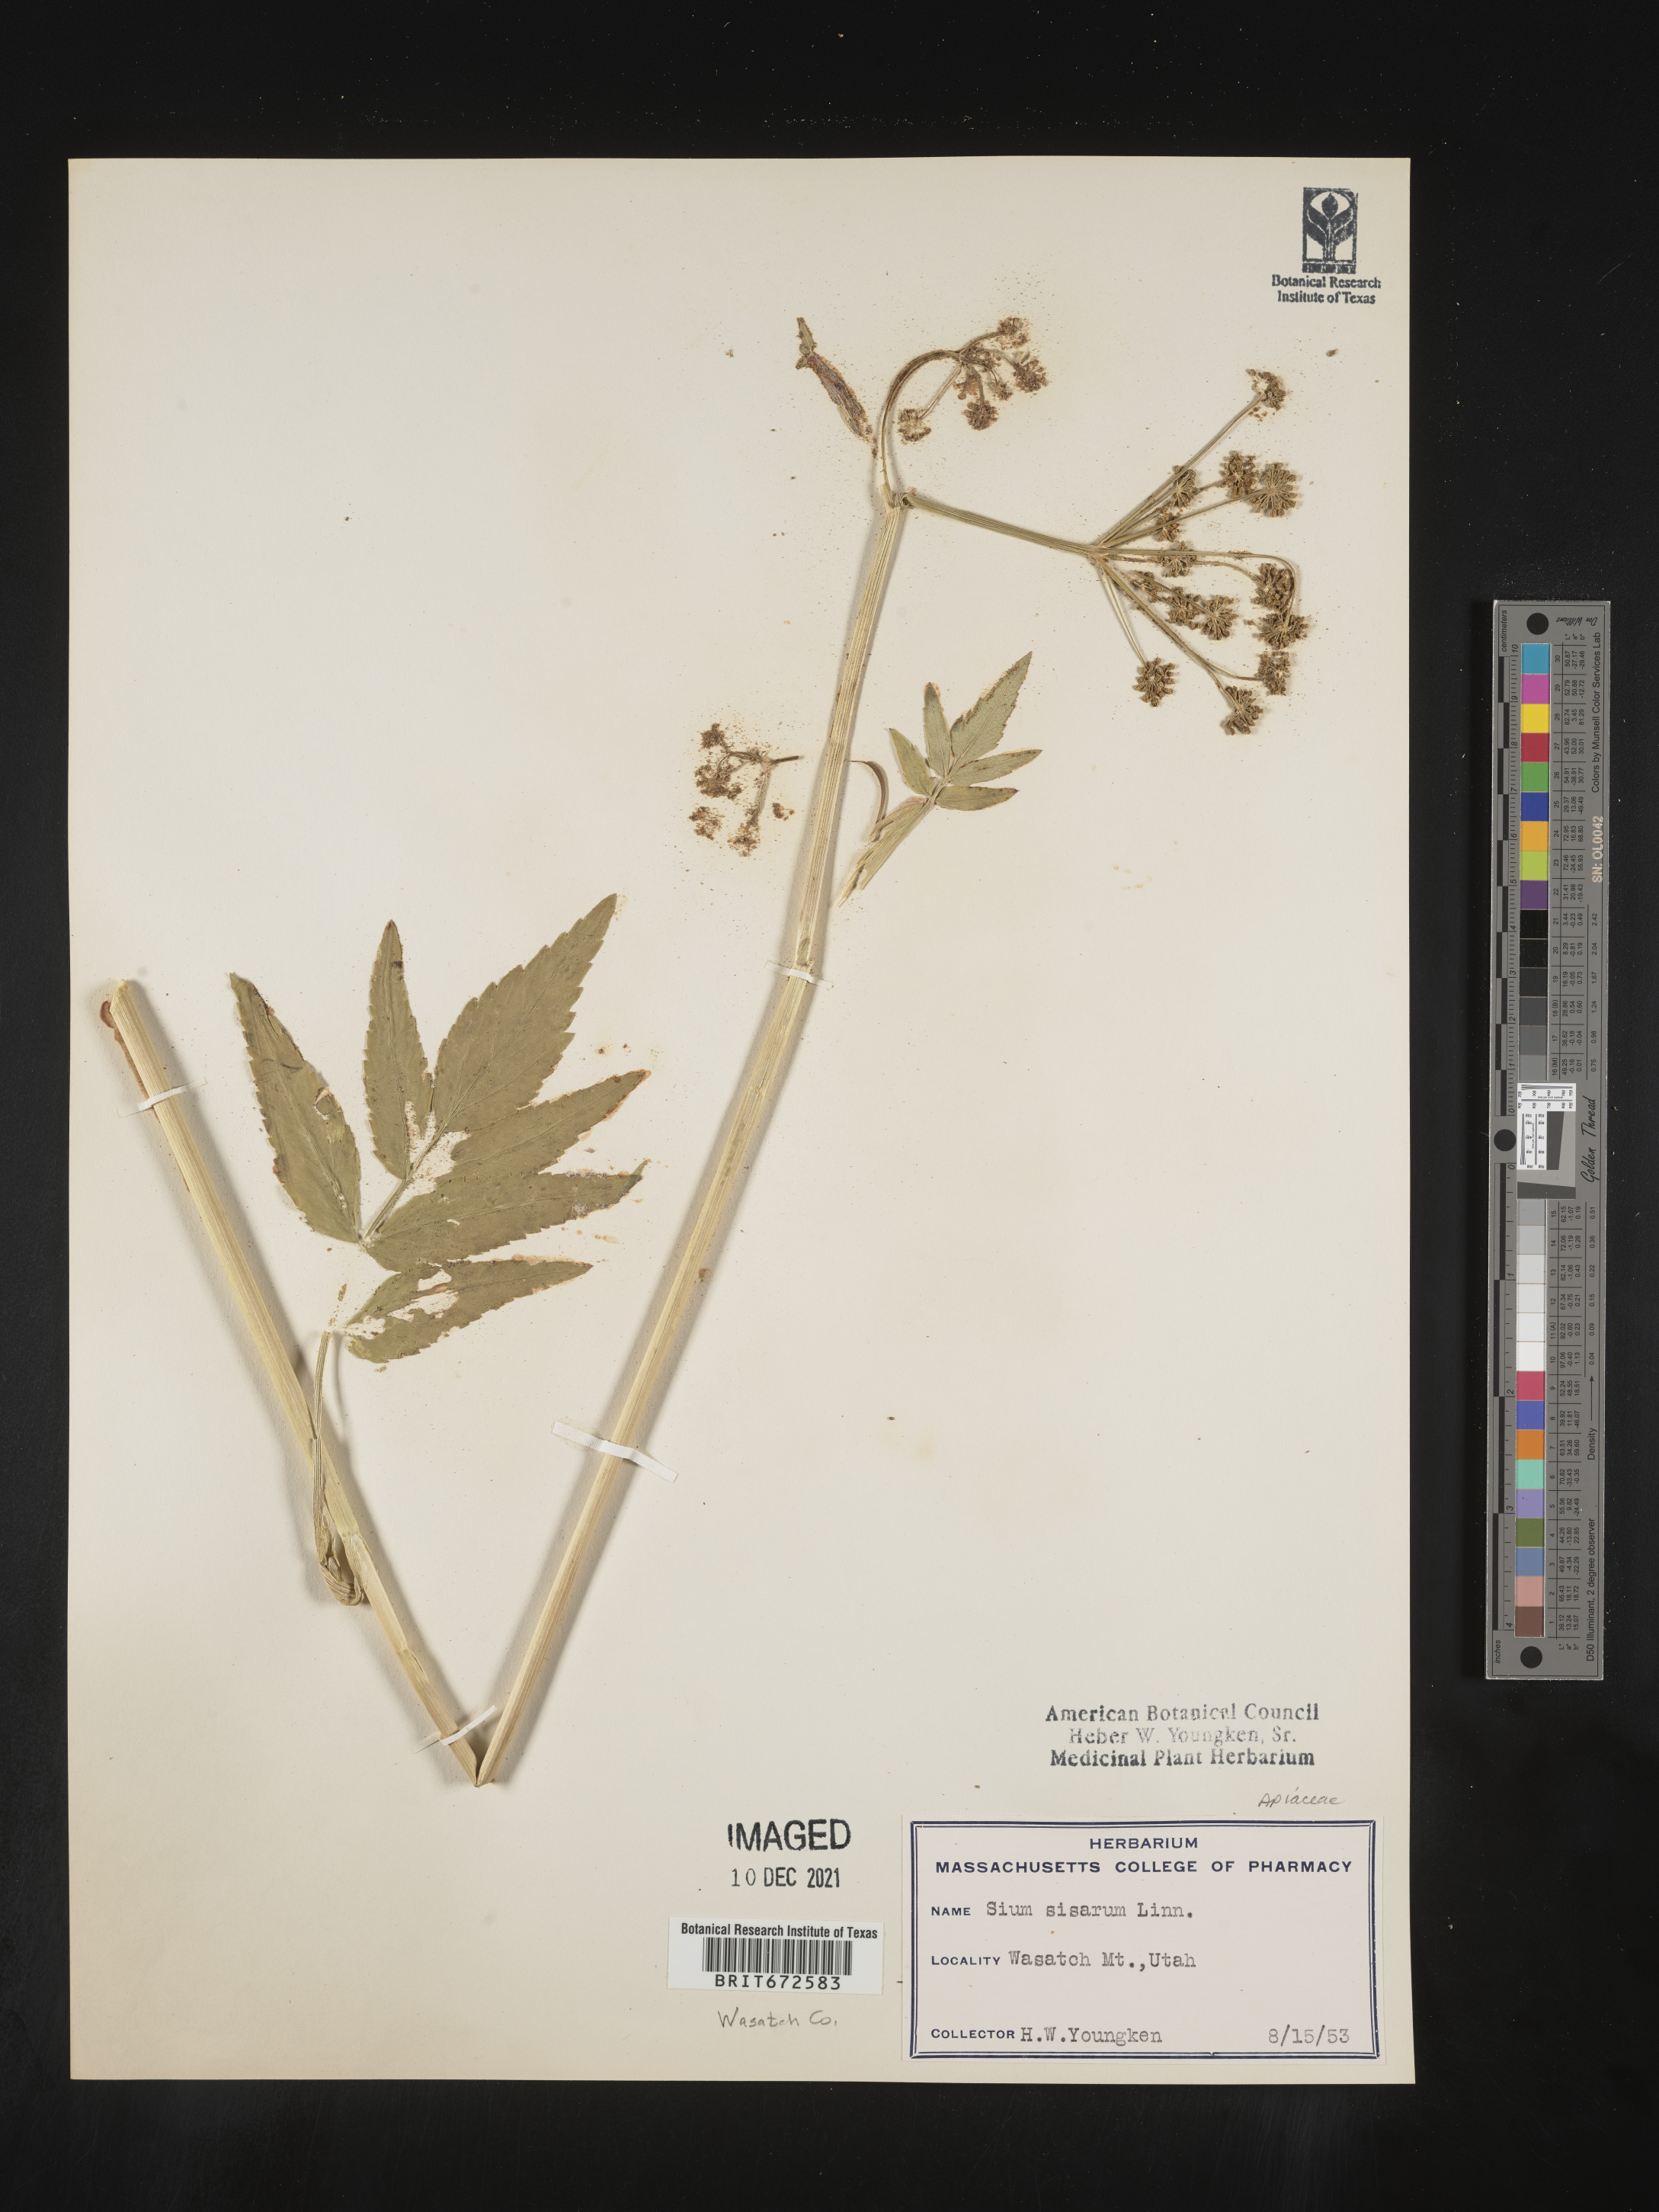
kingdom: Plantae
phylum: Tracheophyta
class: Magnoliopsida
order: Apiales
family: Apiaceae
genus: Sium
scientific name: Sium sisarum
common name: Skirret
